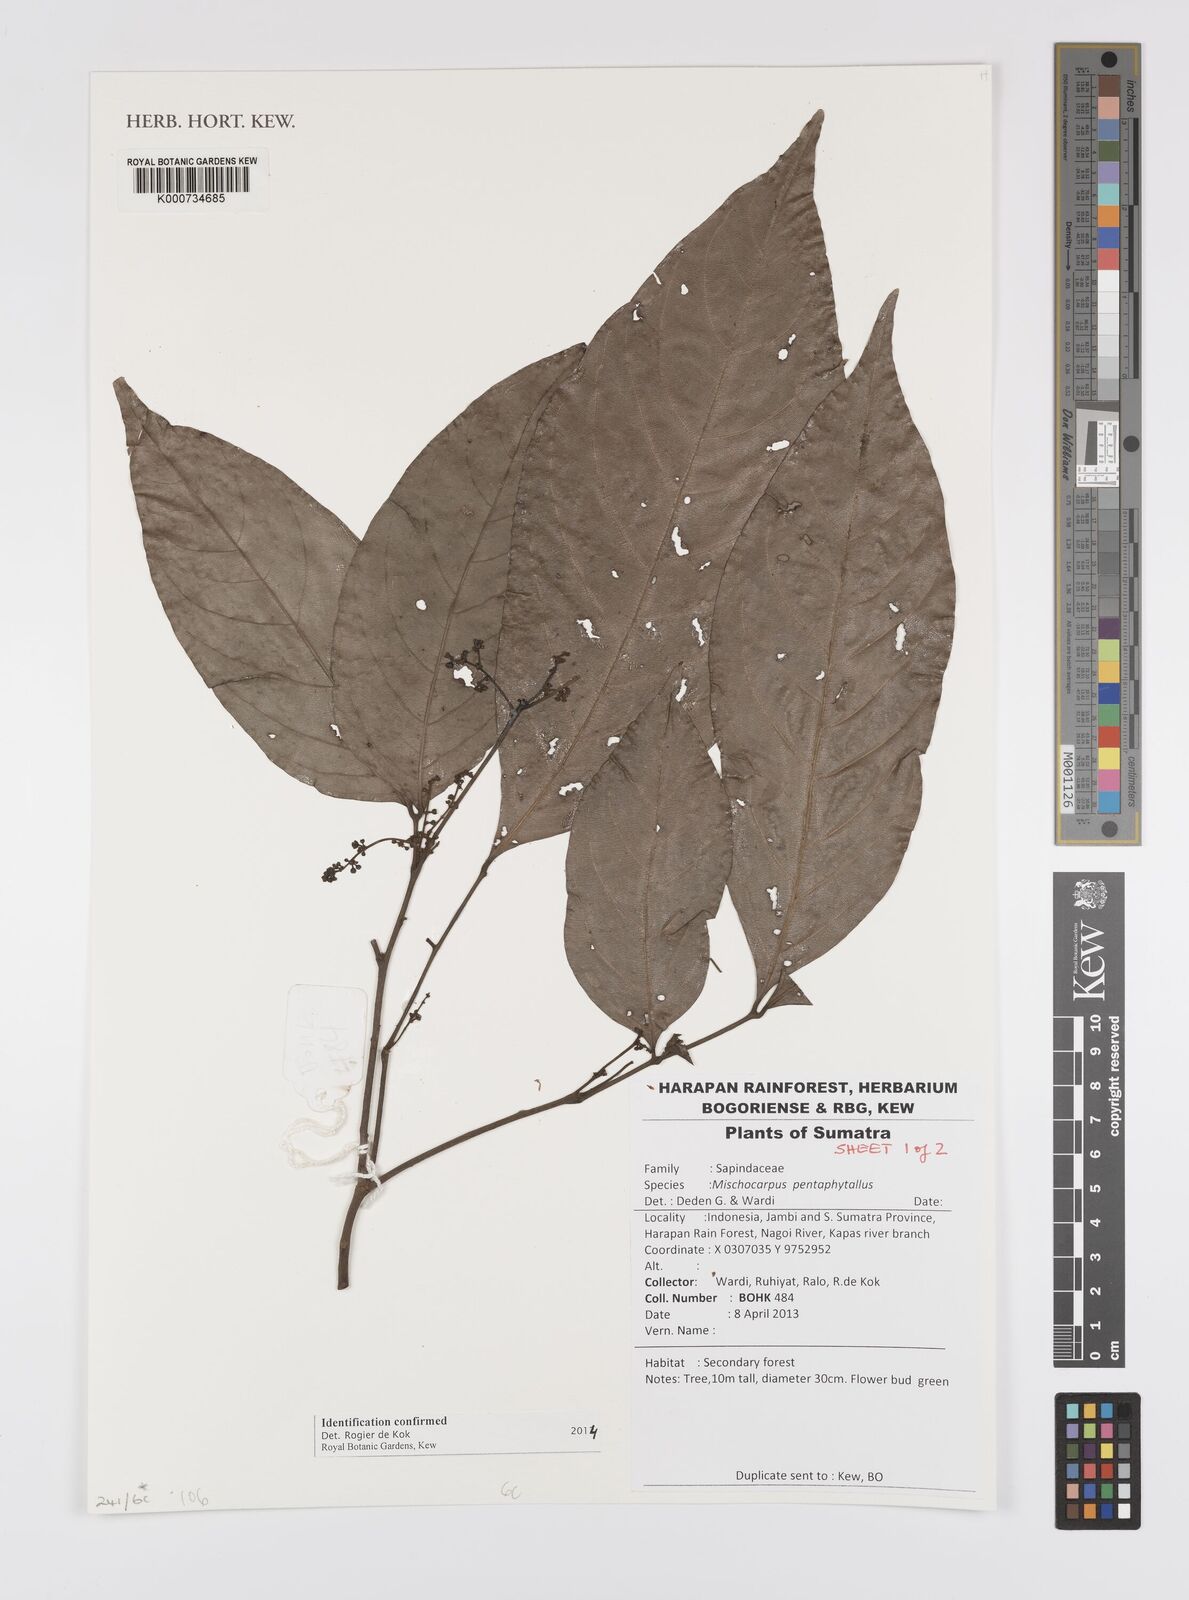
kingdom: Plantae
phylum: Tracheophyta
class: Magnoliopsida
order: Sapindales
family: Sapindaceae
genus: Mischocarpus
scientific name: Mischocarpus pentapetalus
